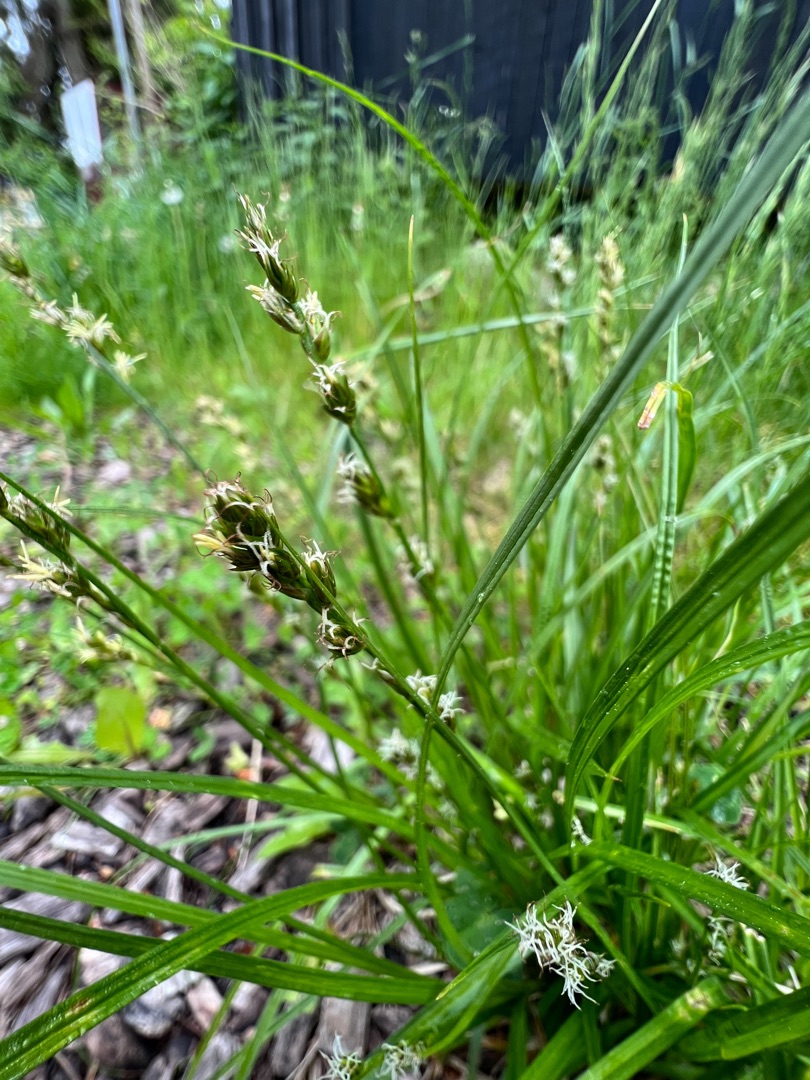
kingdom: Plantae
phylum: Tracheophyta
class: Liliopsida
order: Poales
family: Cyperaceae
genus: Carex
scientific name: Carex divulsa
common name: Mellembrudt star
